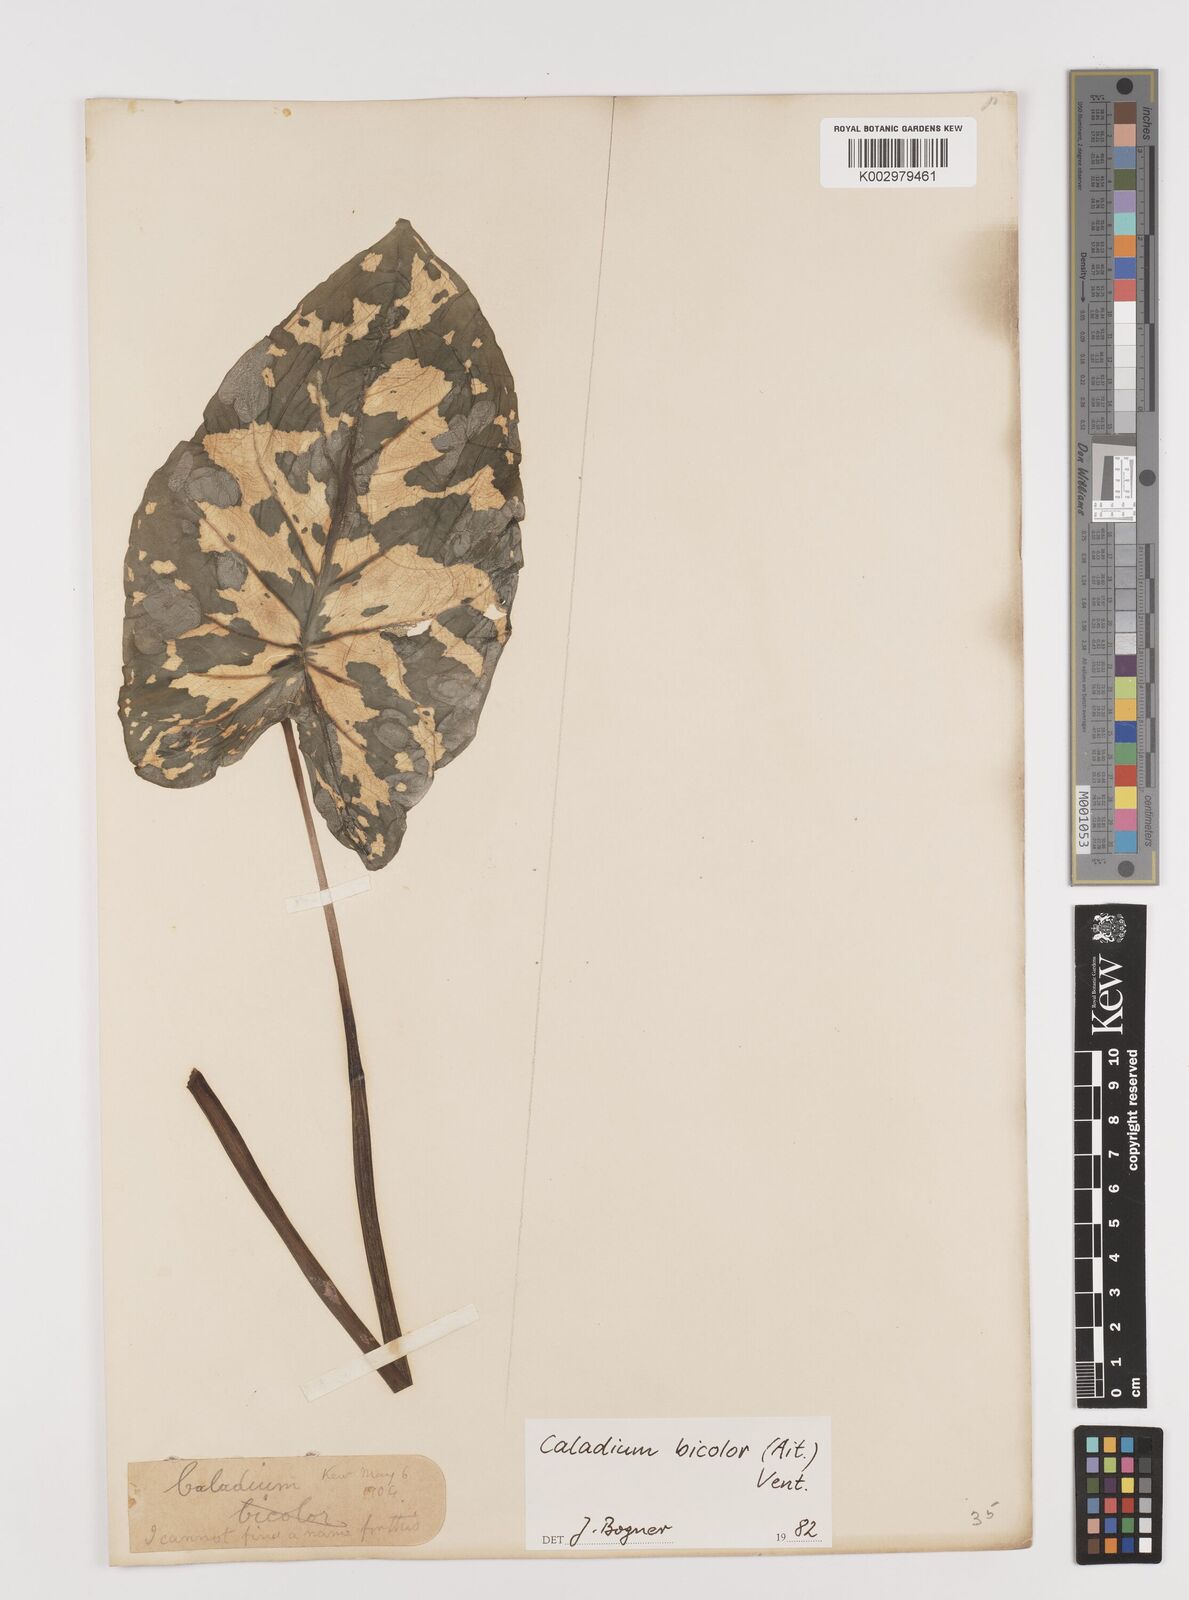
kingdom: Plantae
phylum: Tracheophyta
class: Liliopsida
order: Alismatales
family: Araceae
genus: Caladium
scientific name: Caladium bicolor
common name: Artist's pallet
